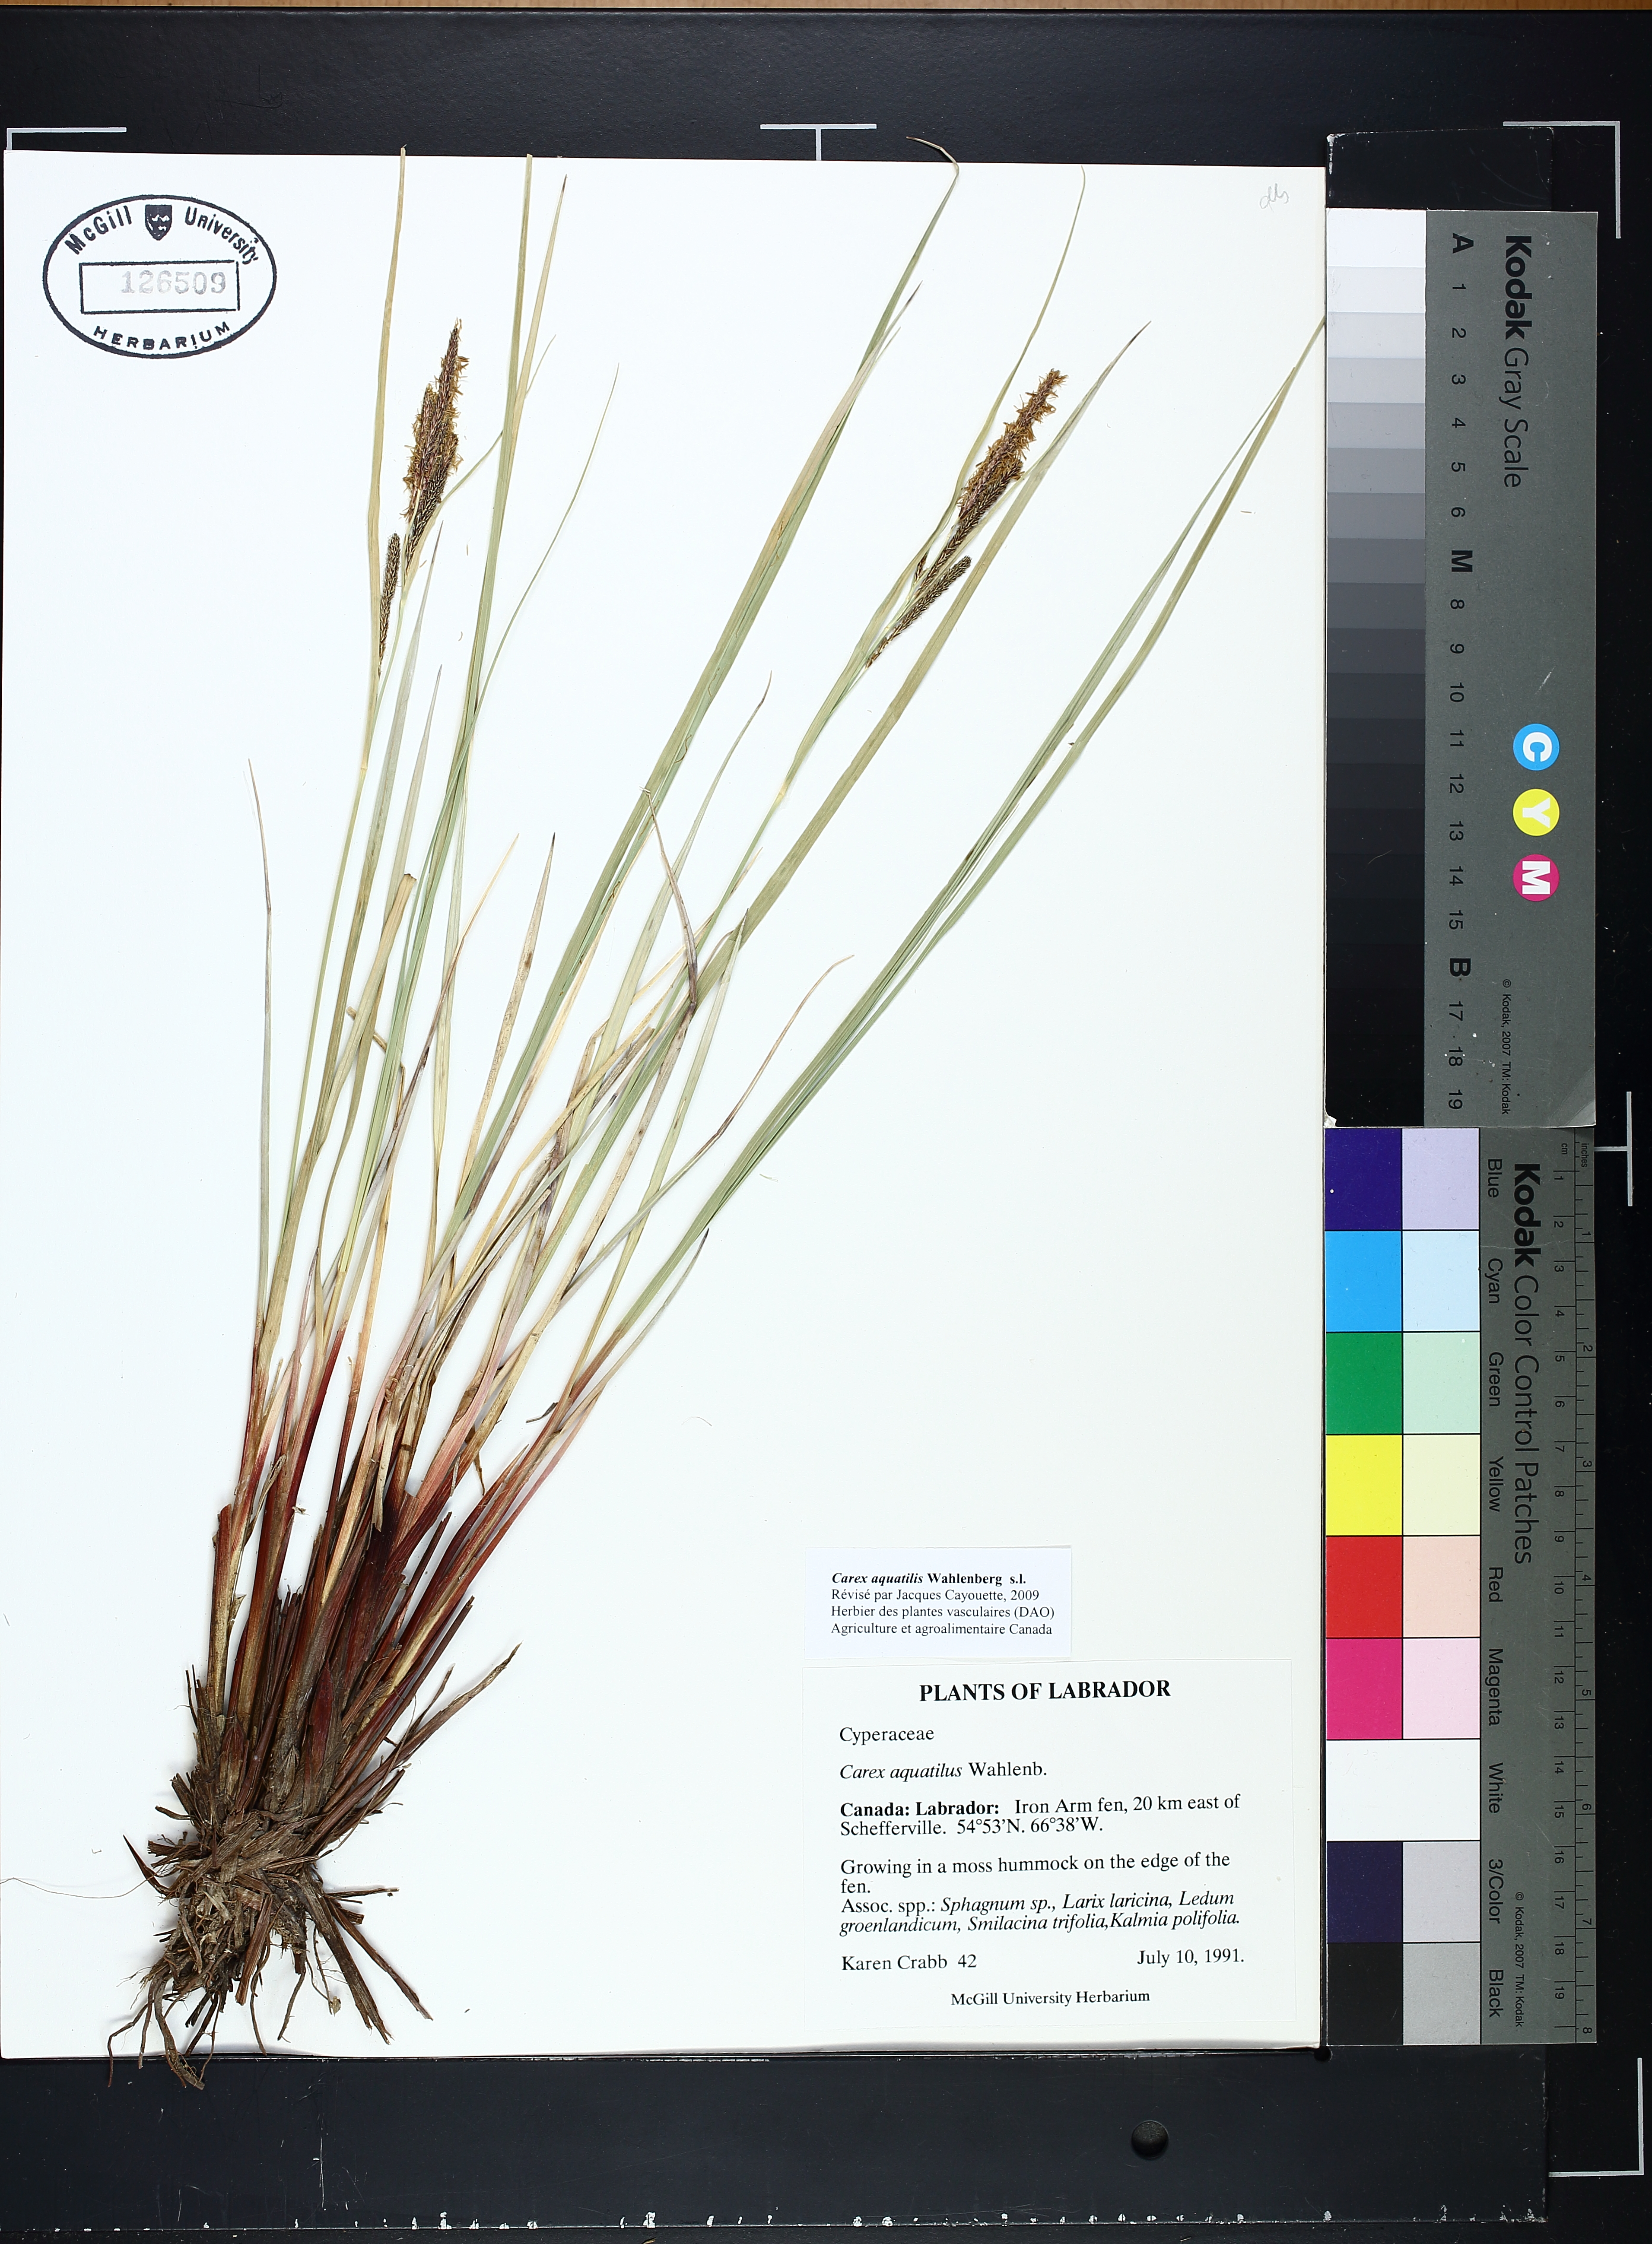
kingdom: Plantae
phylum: Tracheophyta
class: Liliopsida
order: Poales
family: Cyperaceae
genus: Carex
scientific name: Carex aquatilis
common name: Water sedge
